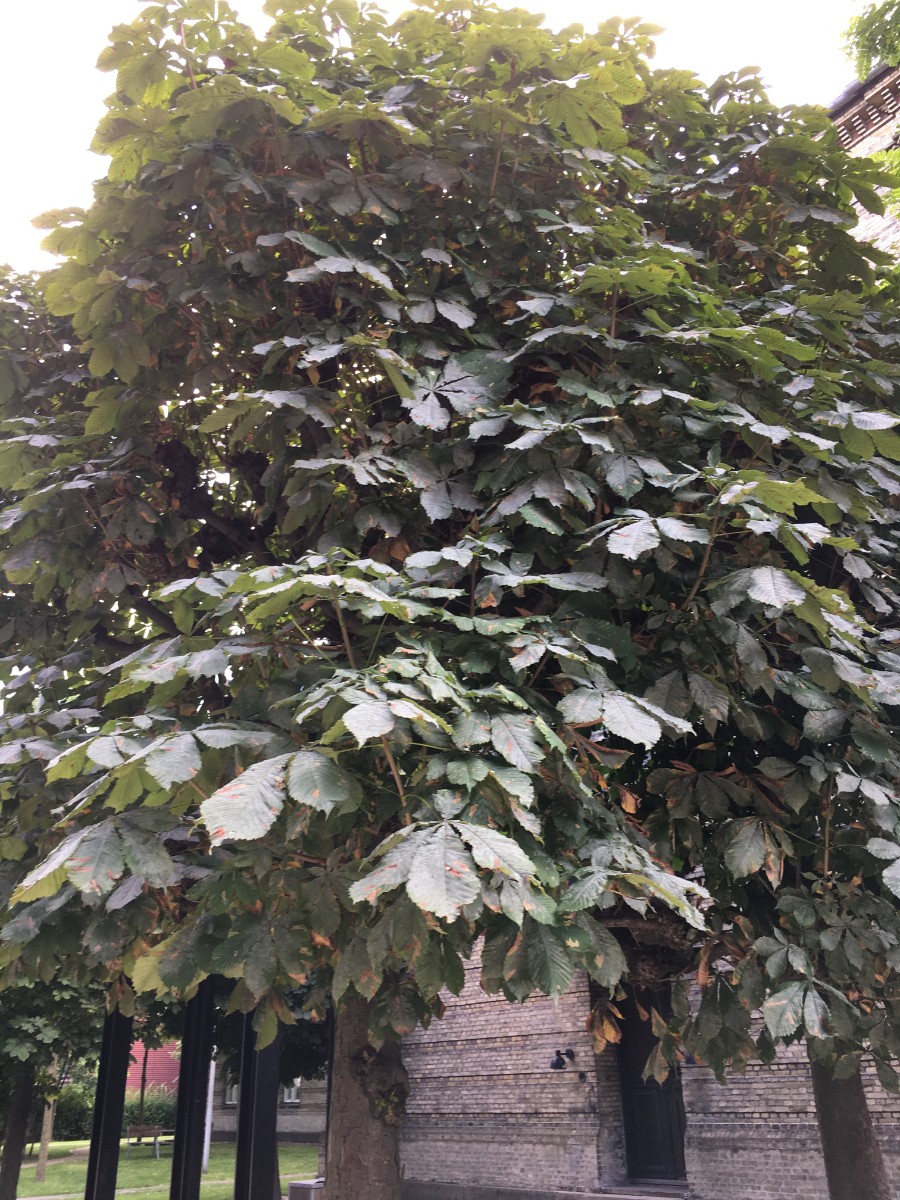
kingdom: Fungi
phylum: Ascomycota
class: Leotiomycetes
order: Helotiales
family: Erysiphaceae
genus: Erysiphe
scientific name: Erysiphe flexuosa
